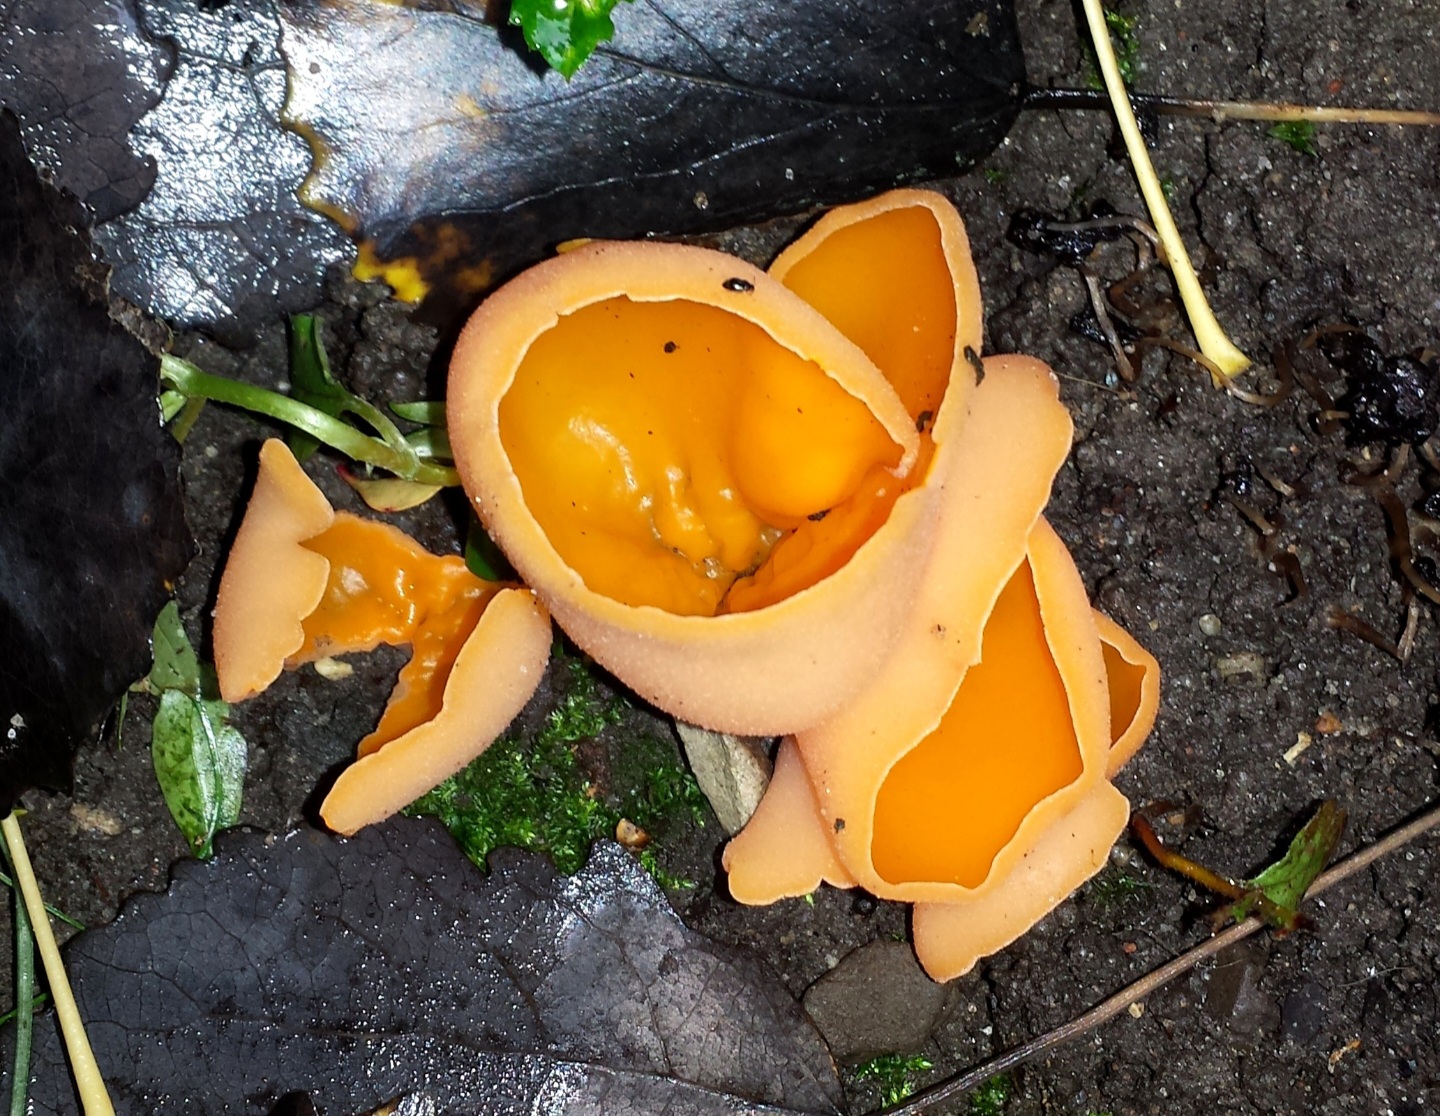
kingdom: Fungi
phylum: Ascomycota
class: Pezizomycetes
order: Pezizales
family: Pyronemataceae
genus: Aleuria
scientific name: Aleuria aurantia
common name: almindelig orangebæger
